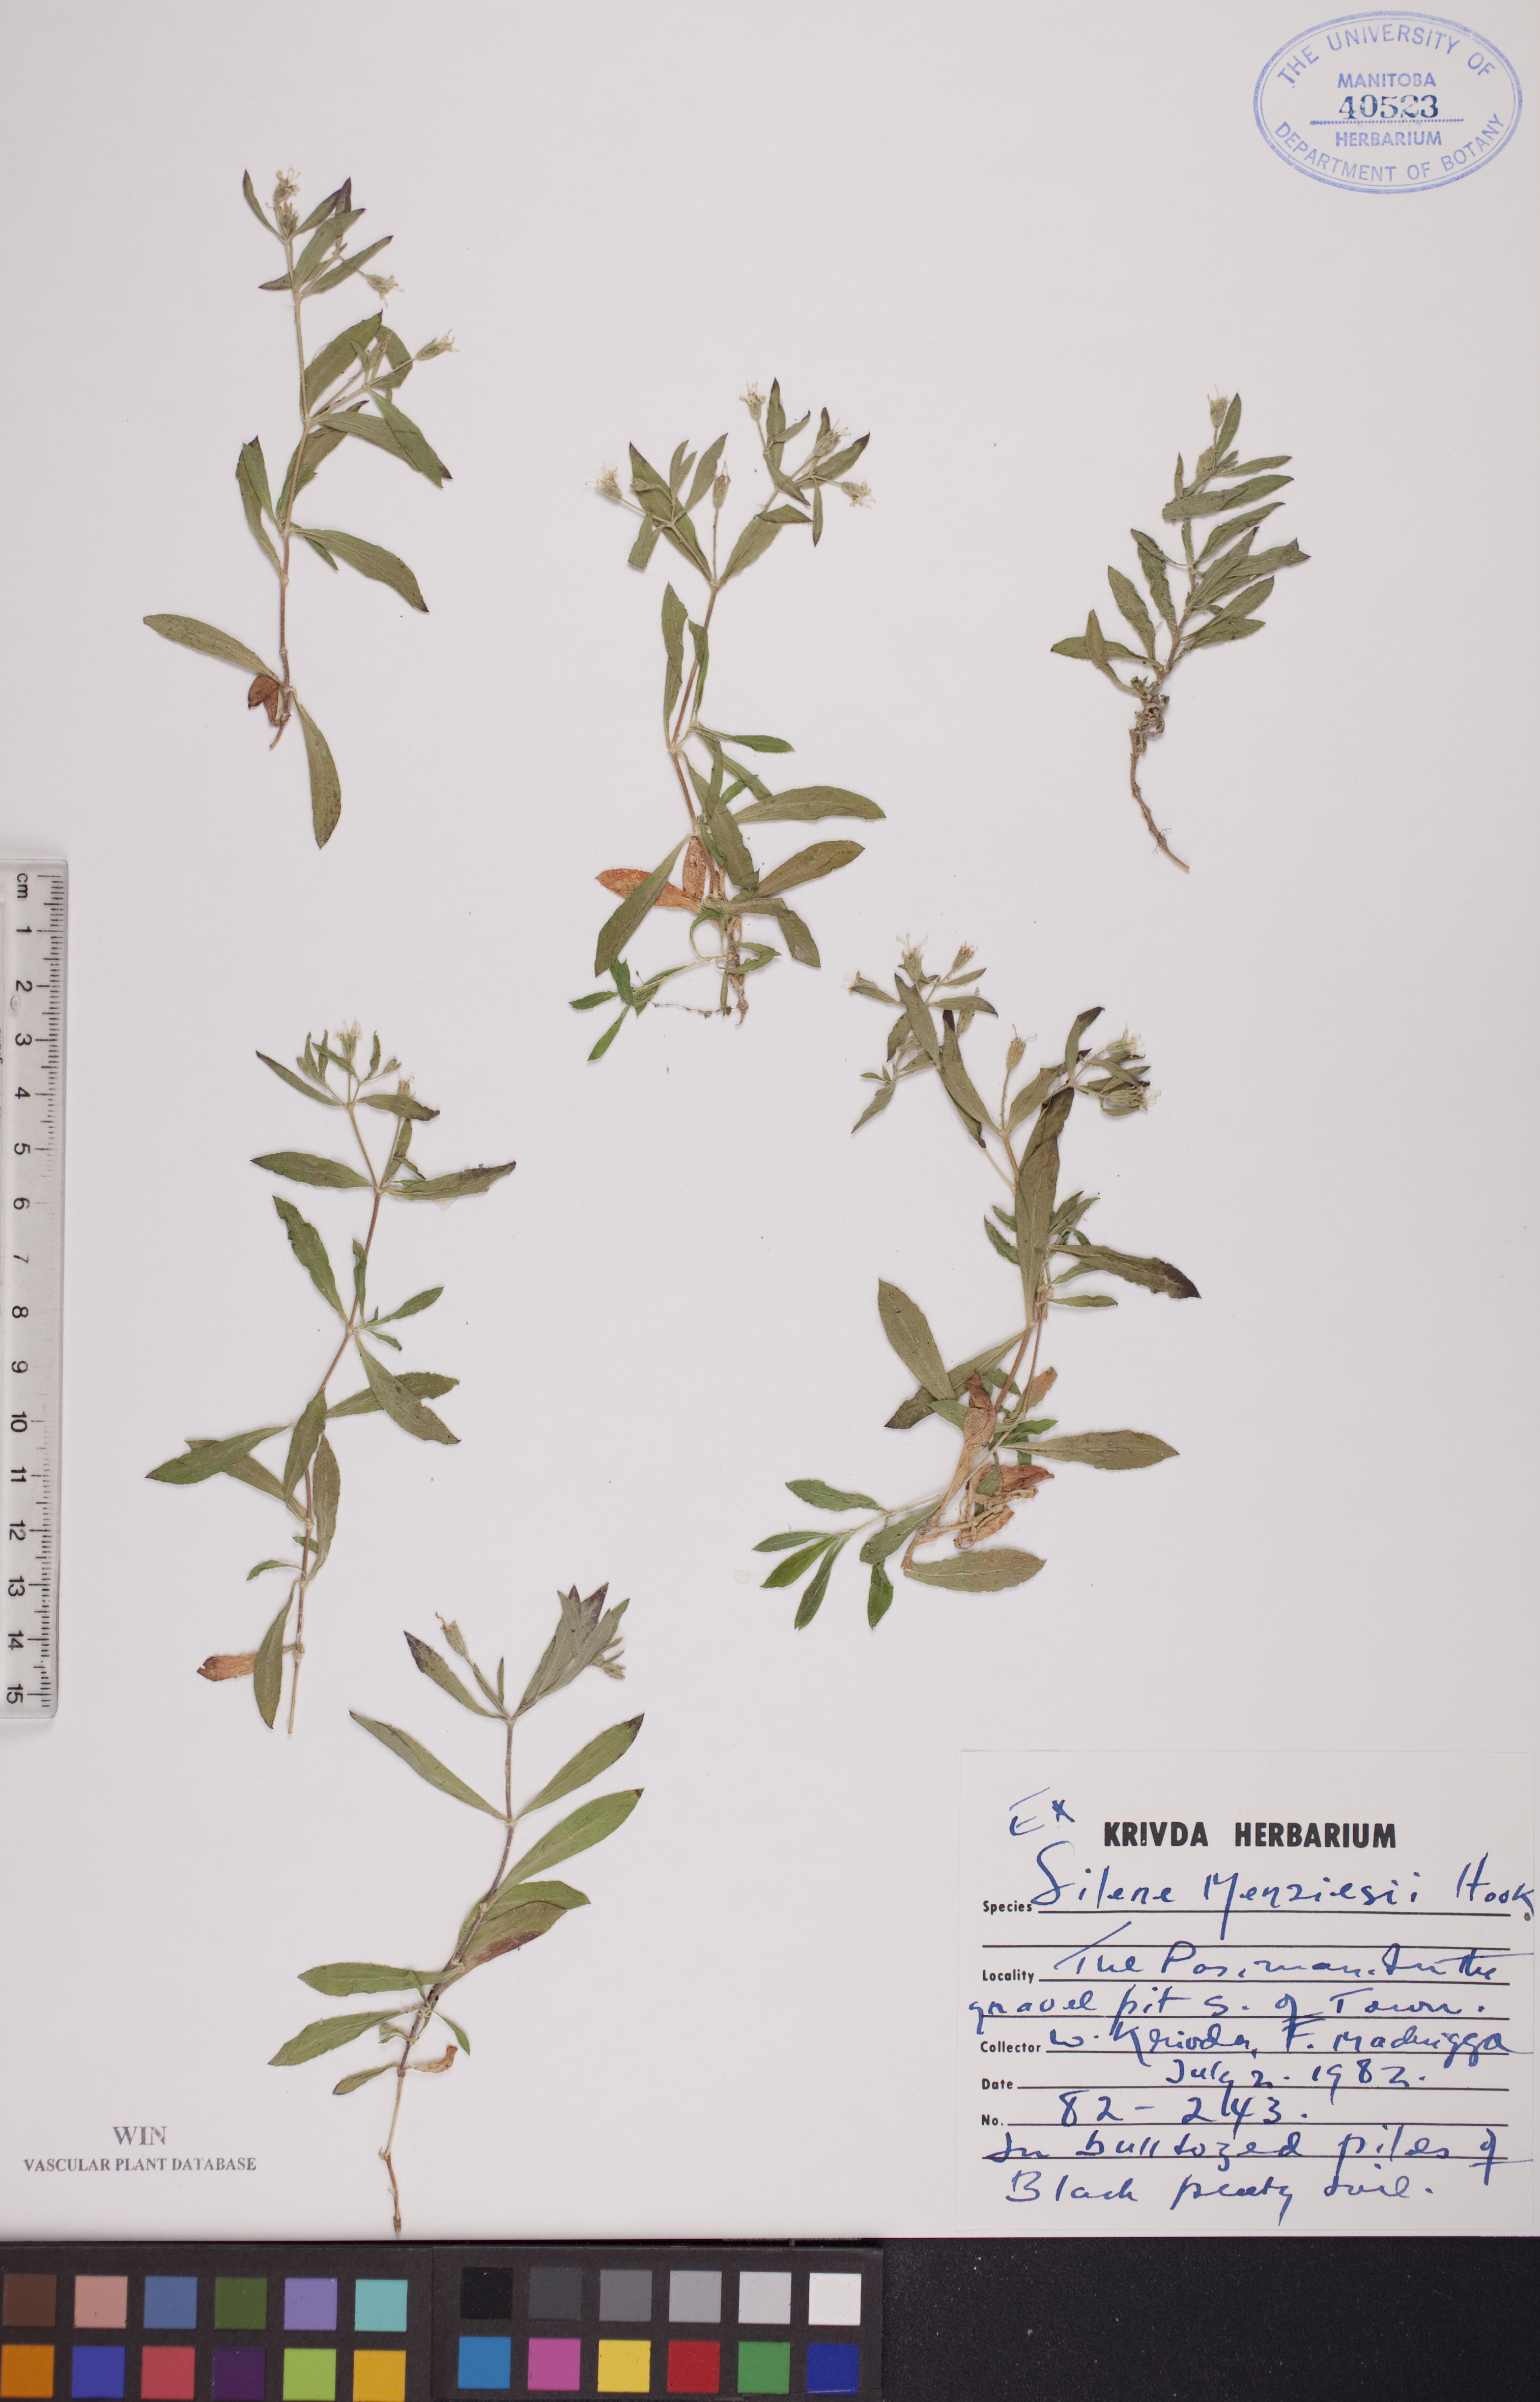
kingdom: Plantae
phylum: Tracheophyta
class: Magnoliopsida
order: Caryophyllales
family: Caryophyllaceae
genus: Silene
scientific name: Silene menziesii
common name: Menzies's catchfly
